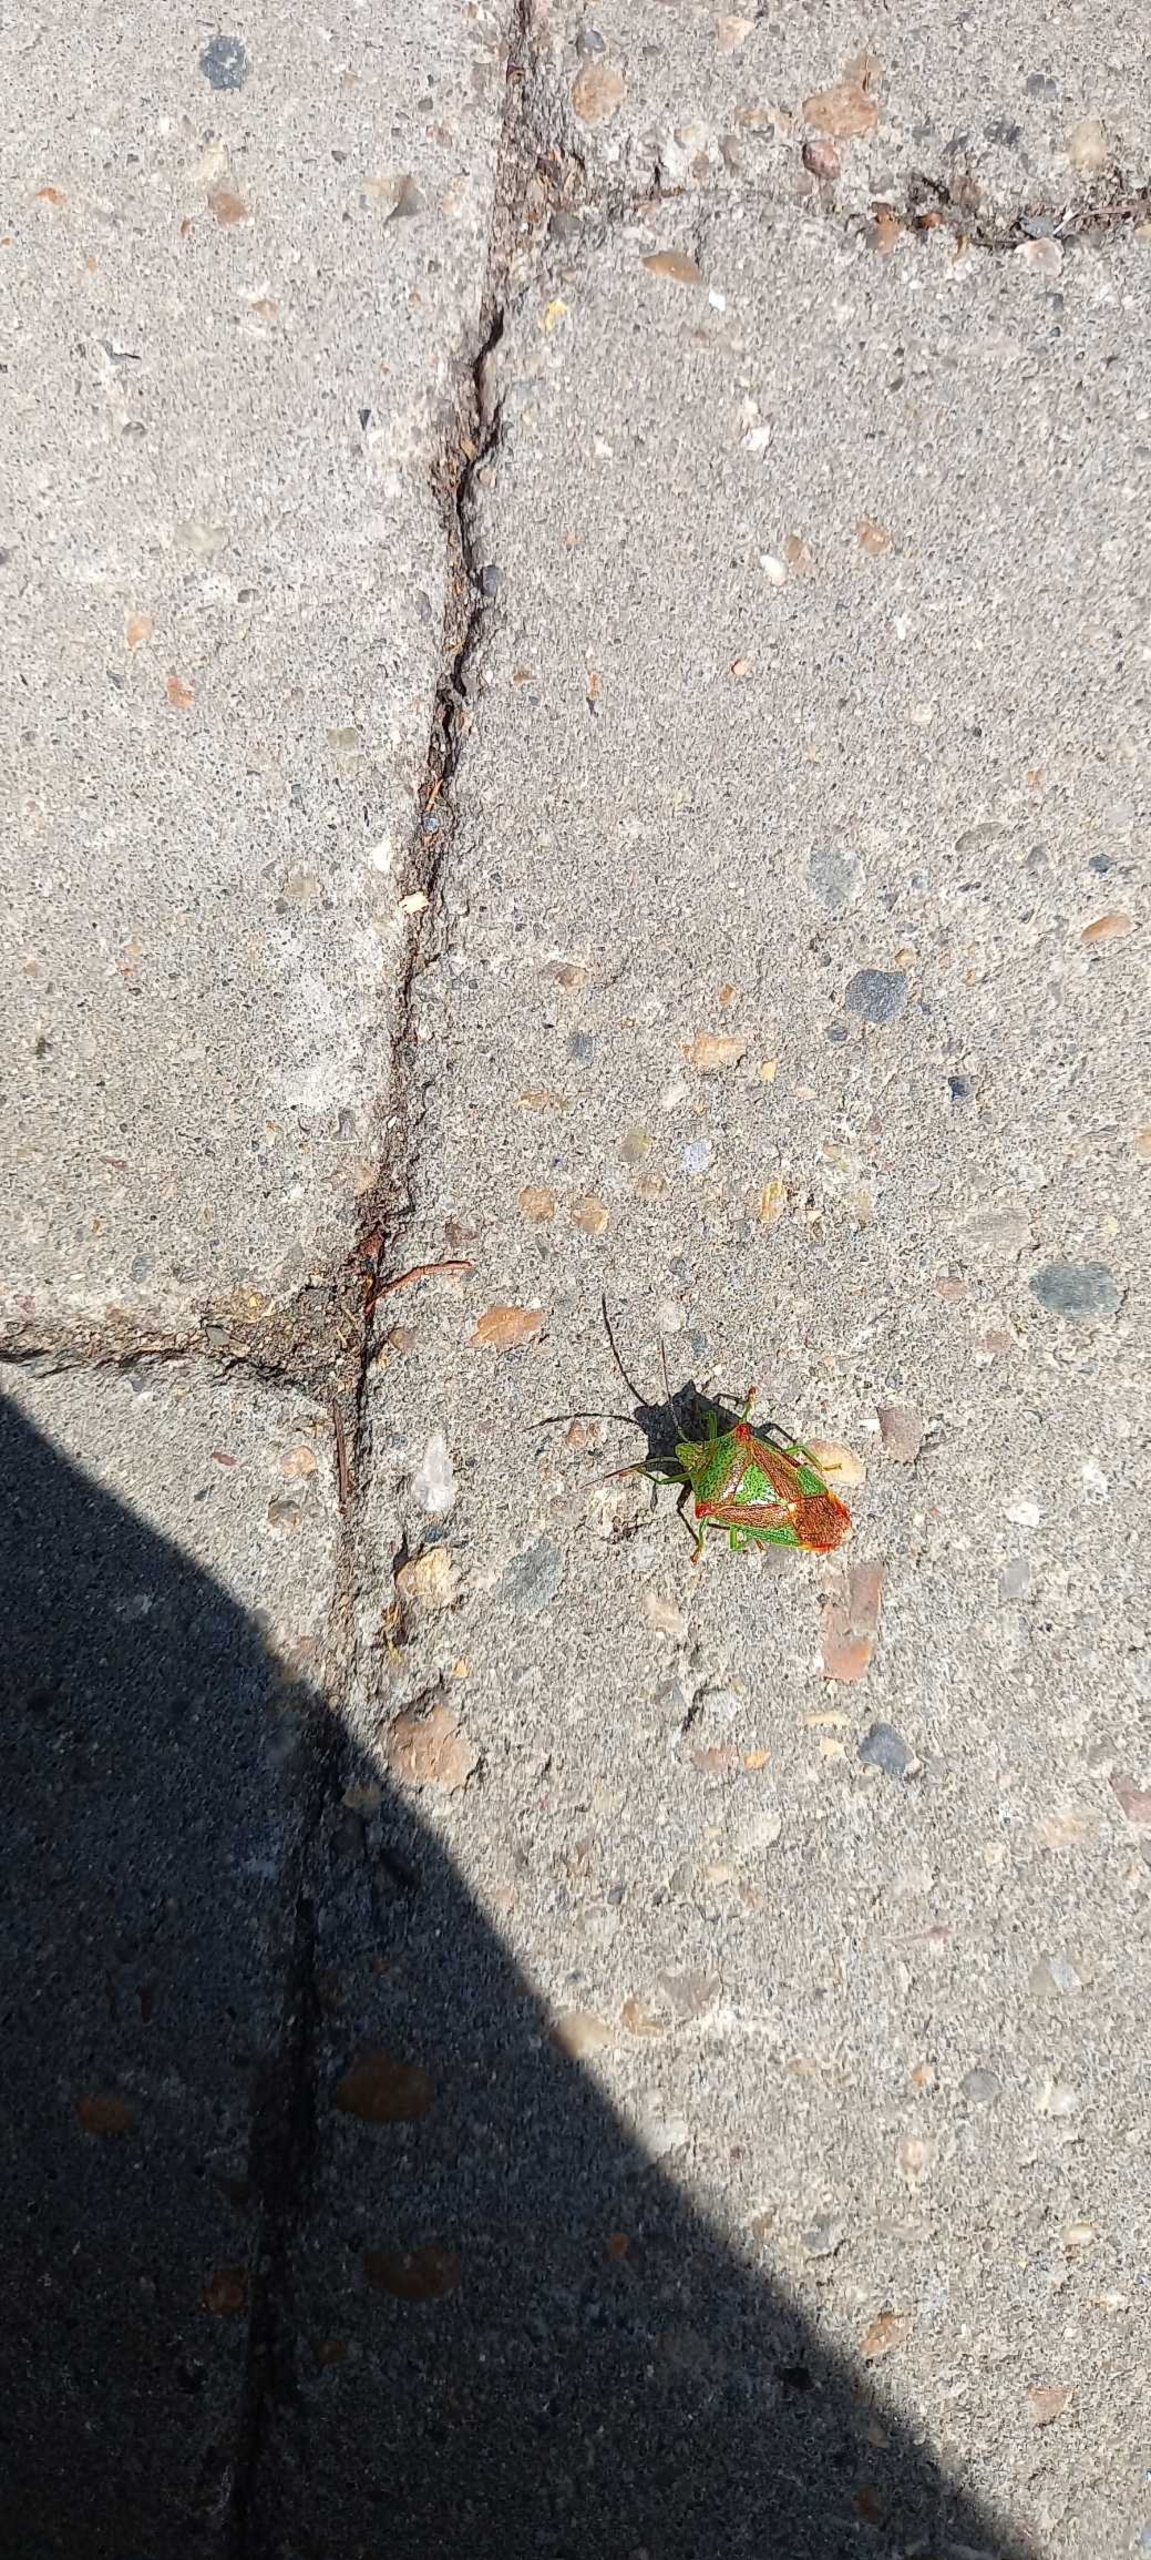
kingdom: Animalia
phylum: Arthropoda
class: Insecta
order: Hemiptera
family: Acanthosomatidae
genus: Acanthosoma
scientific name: Acanthosoma haemorrhoidale
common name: Stor løvtæge
